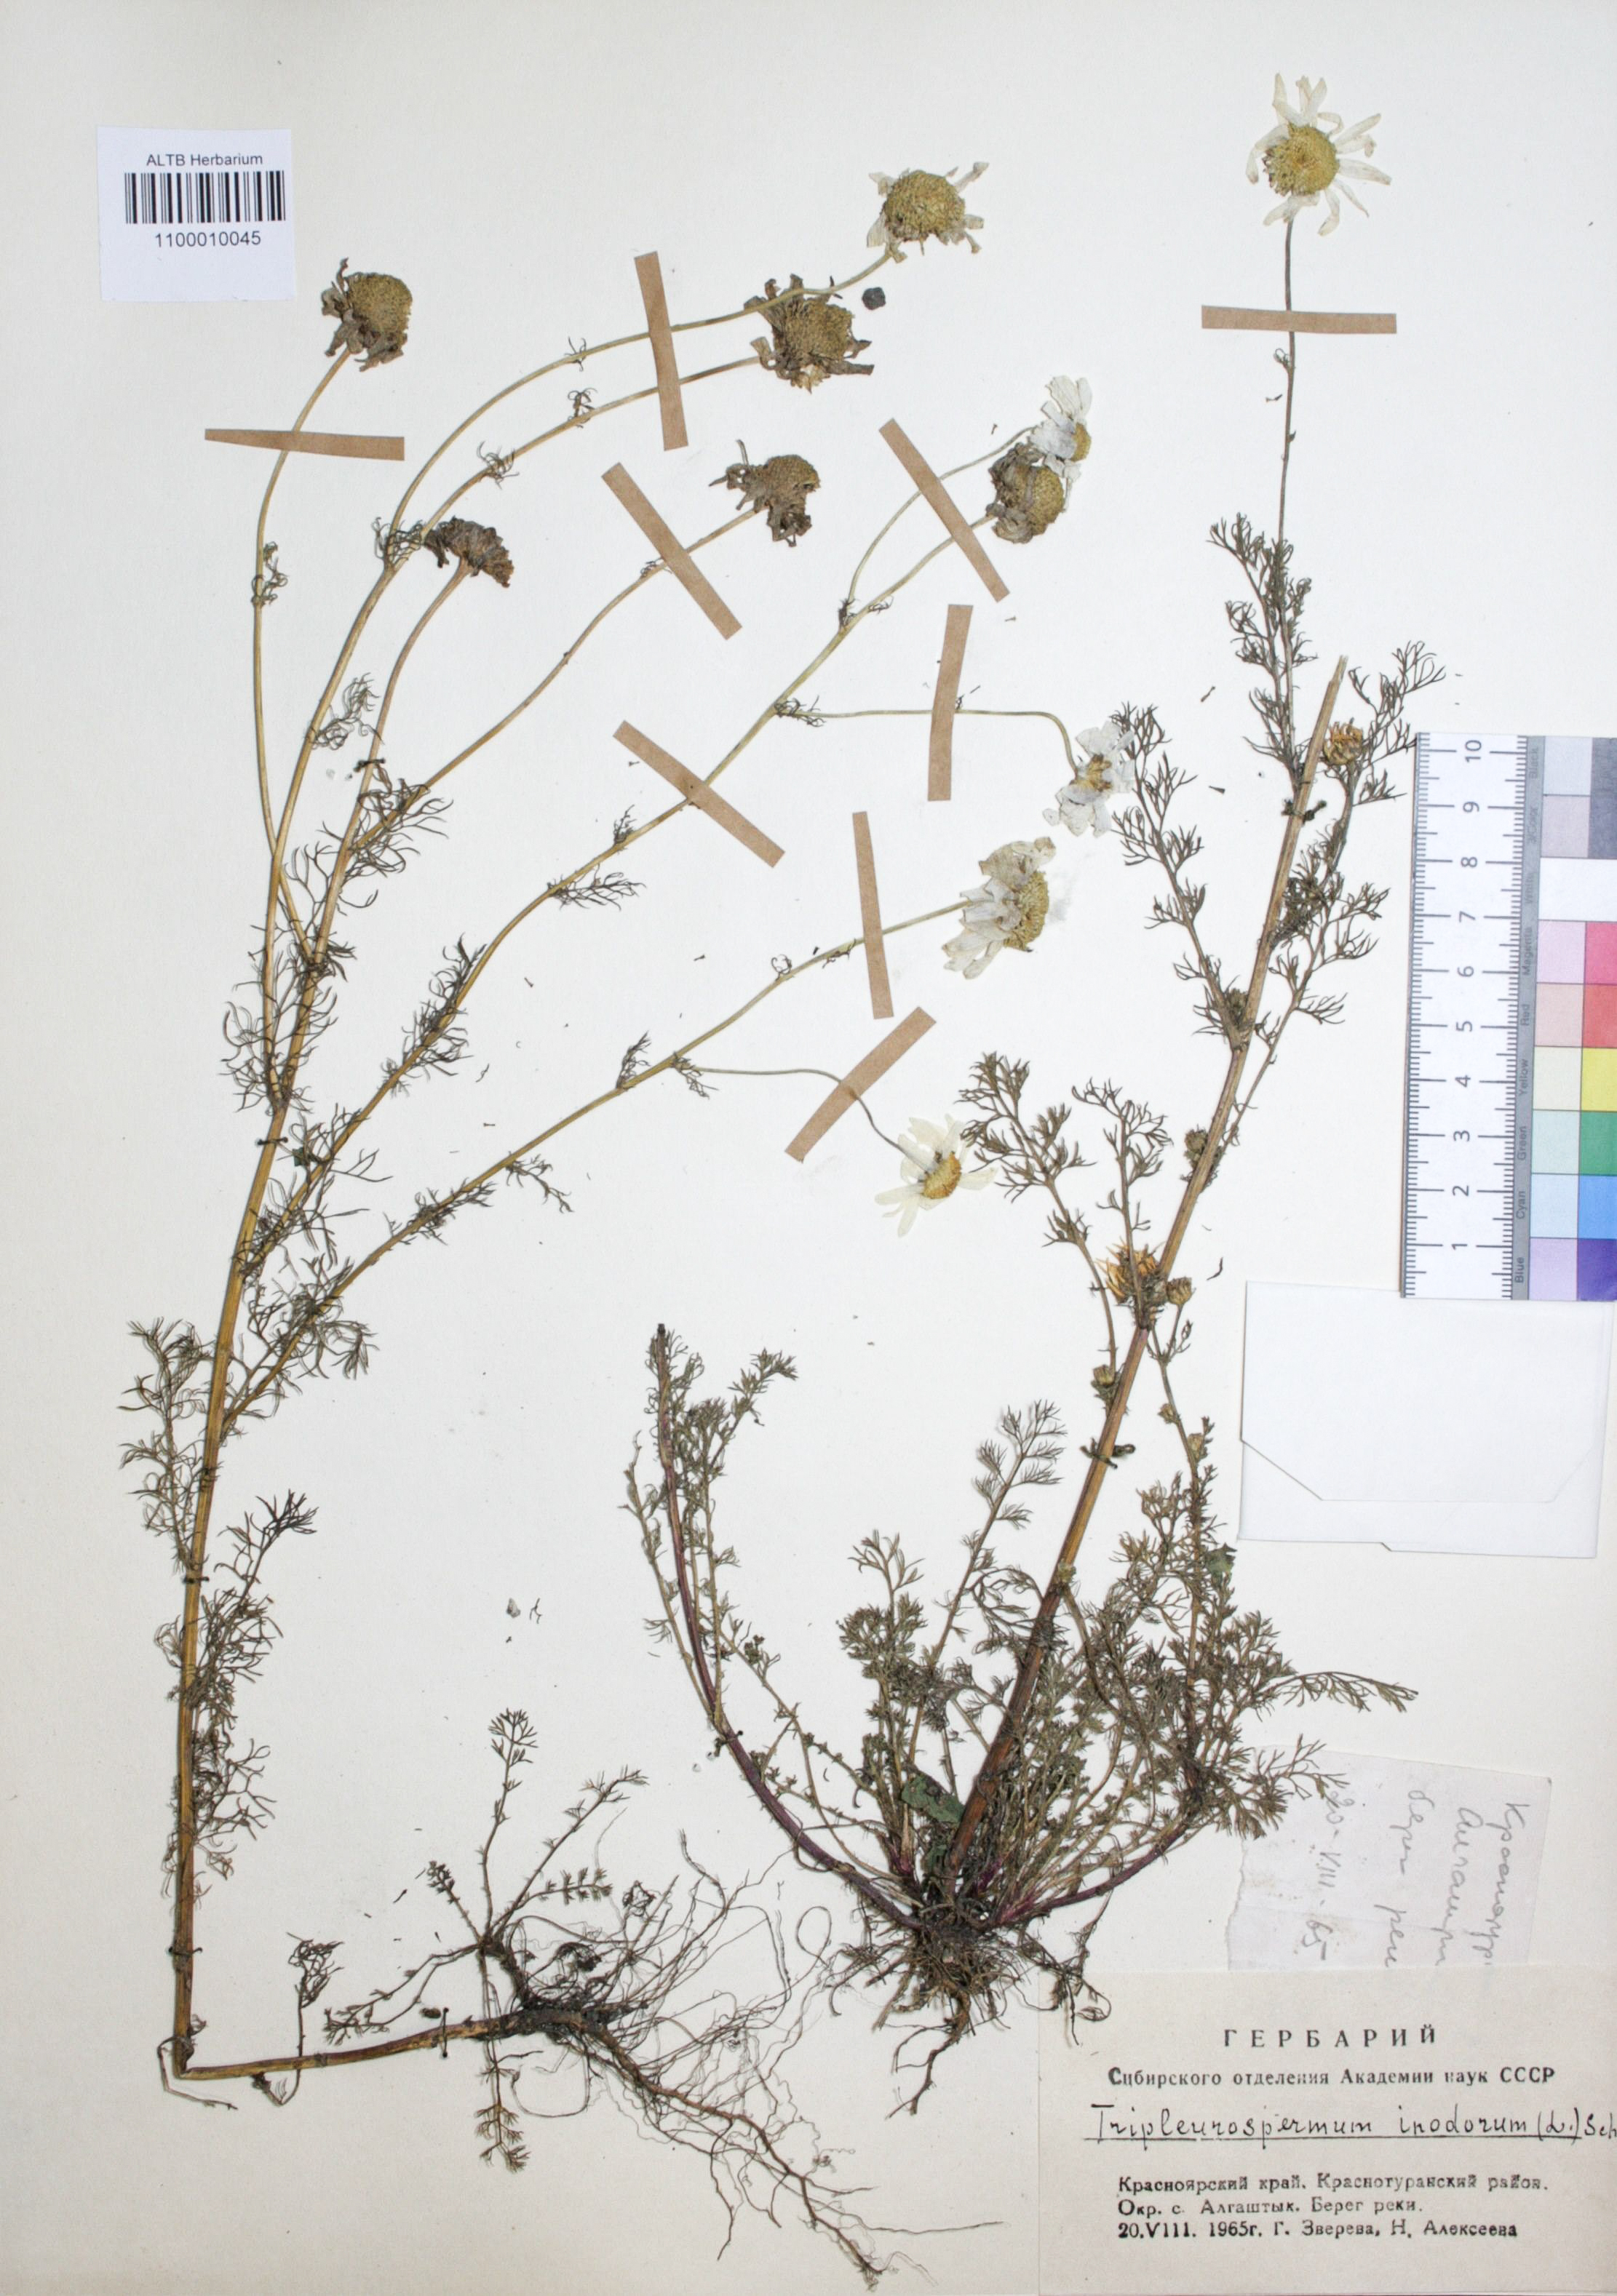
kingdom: Plantae
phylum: Tracheophyta
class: Magnoliopsida
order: Asterales
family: Asteraceae
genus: Tripleurospermum
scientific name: Tripleurospermum inodorum
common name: Scentless mayweed
